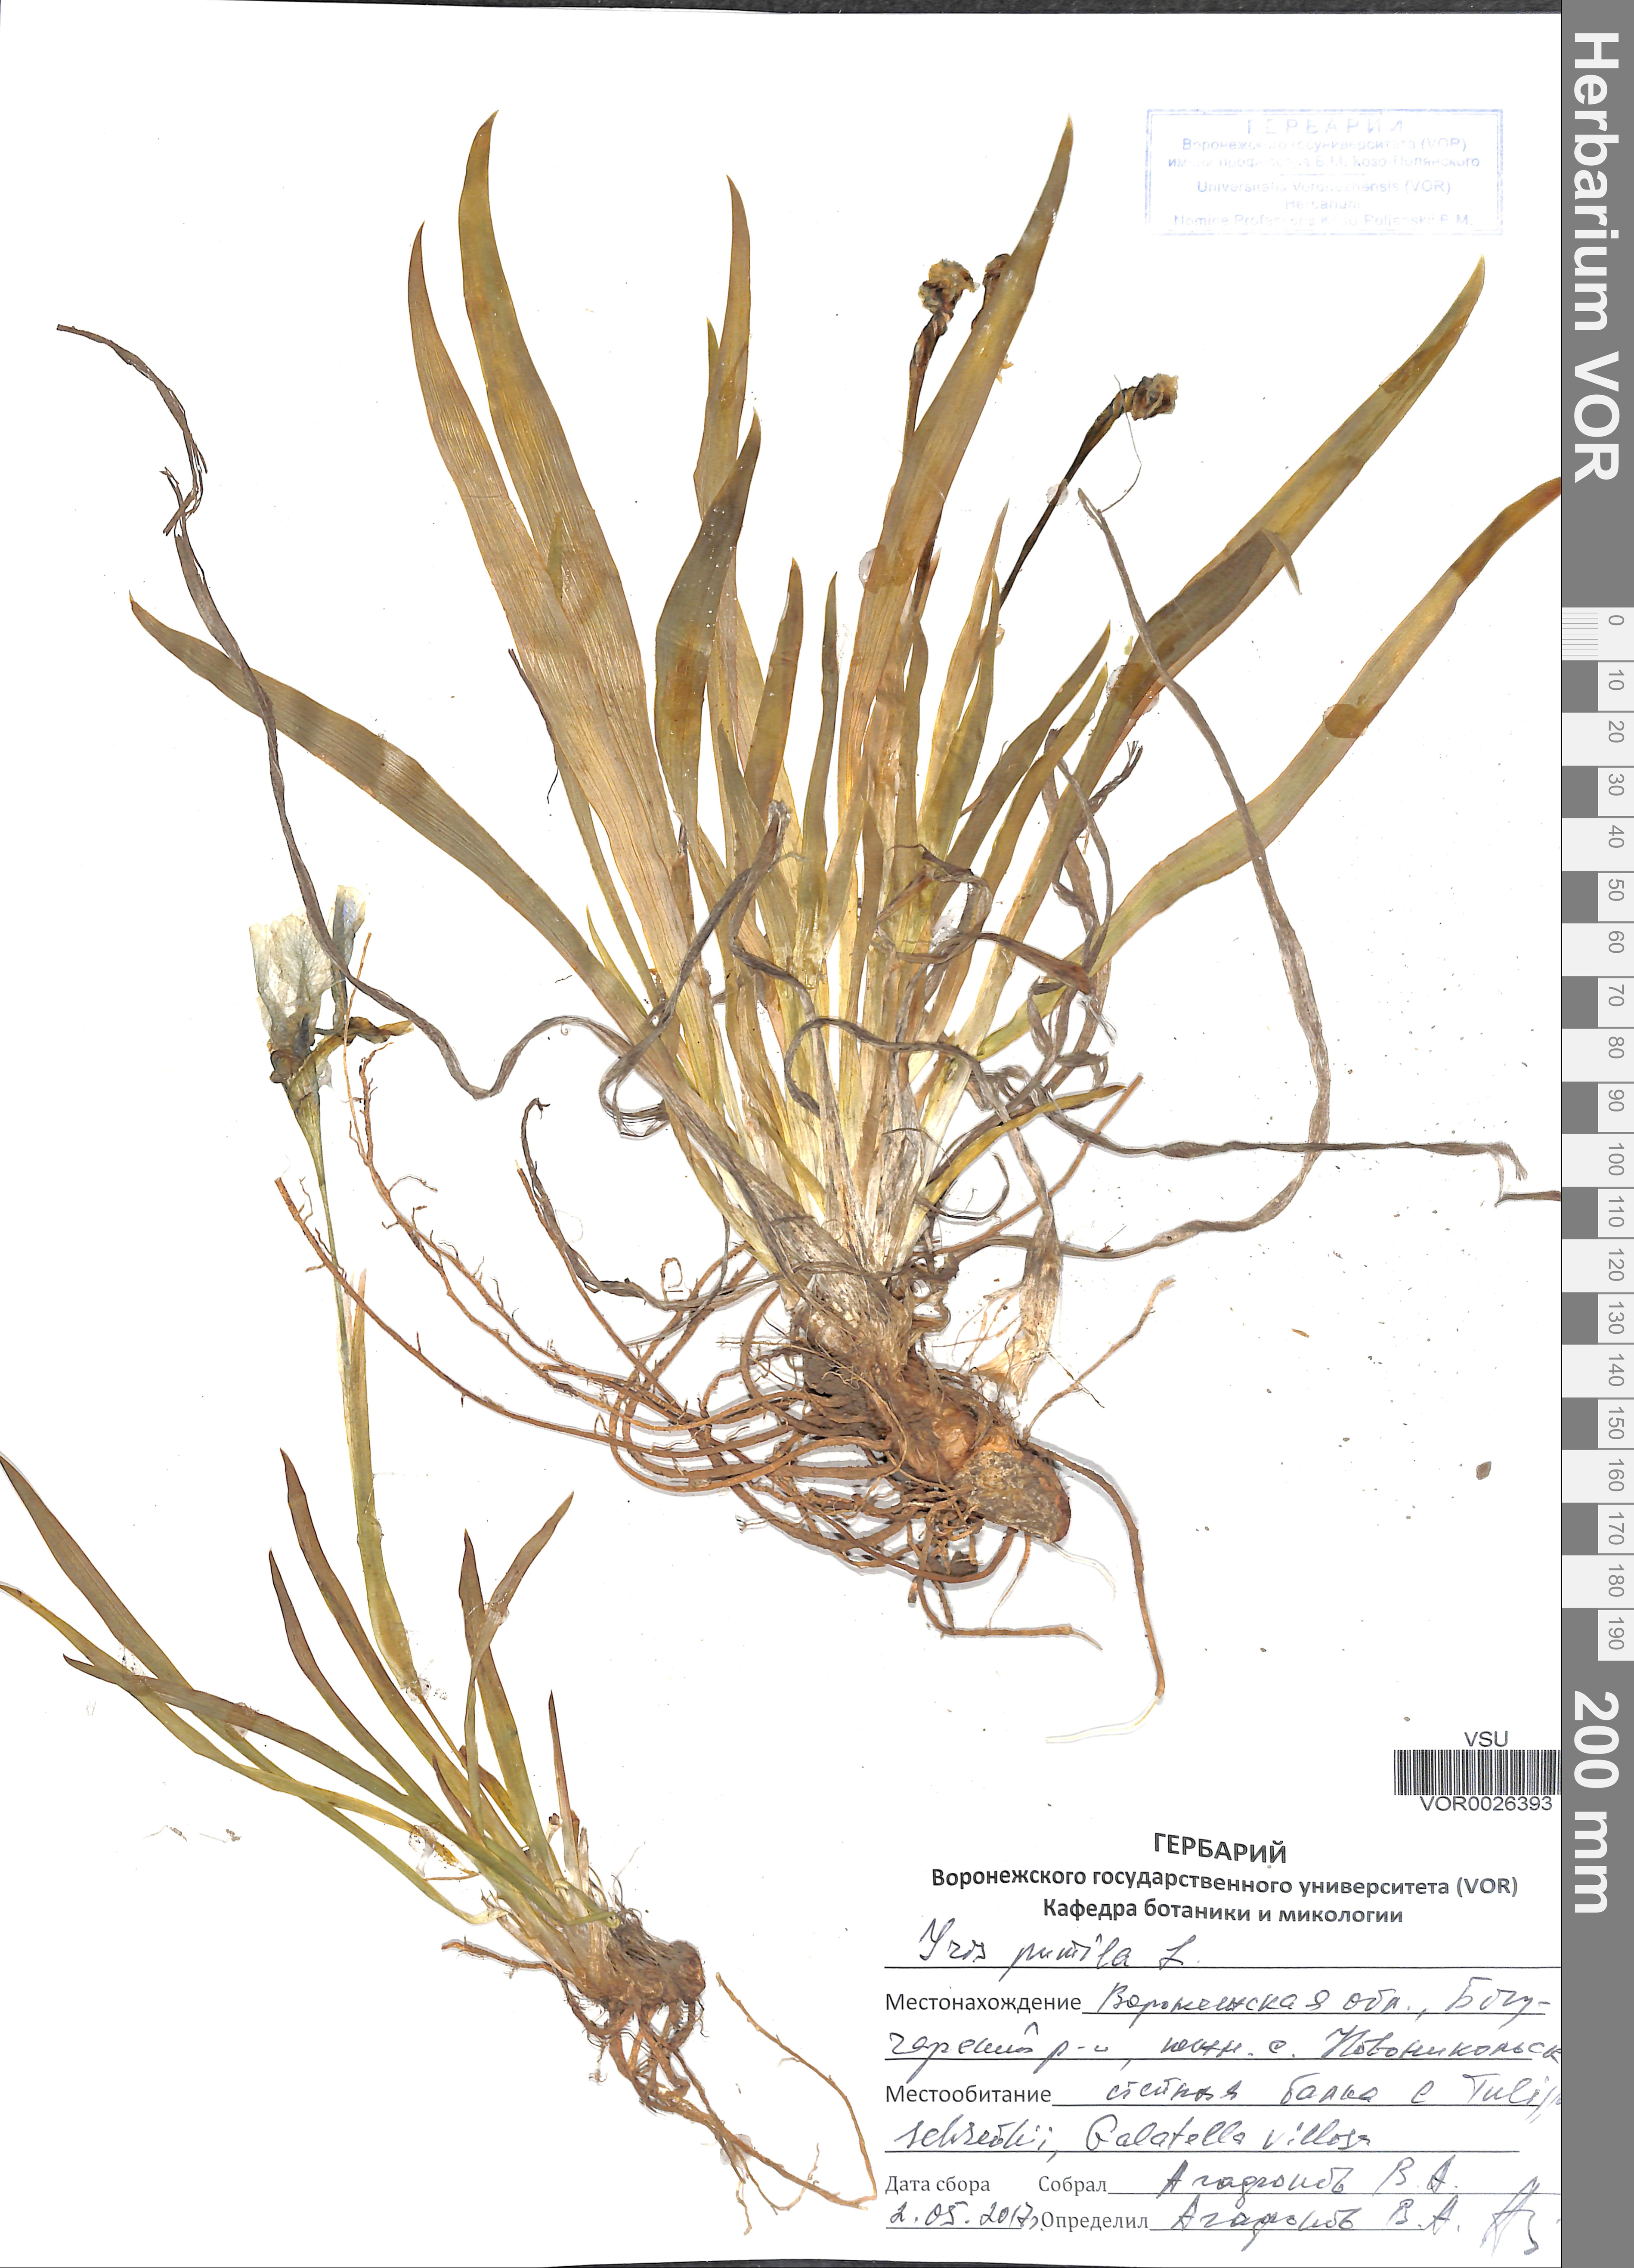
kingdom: Plantae
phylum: Tracheophyta
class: Liliopsida
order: Asparagales
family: Iridaceae
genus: Iris
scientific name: Iris pumila
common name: Dwarf iris
